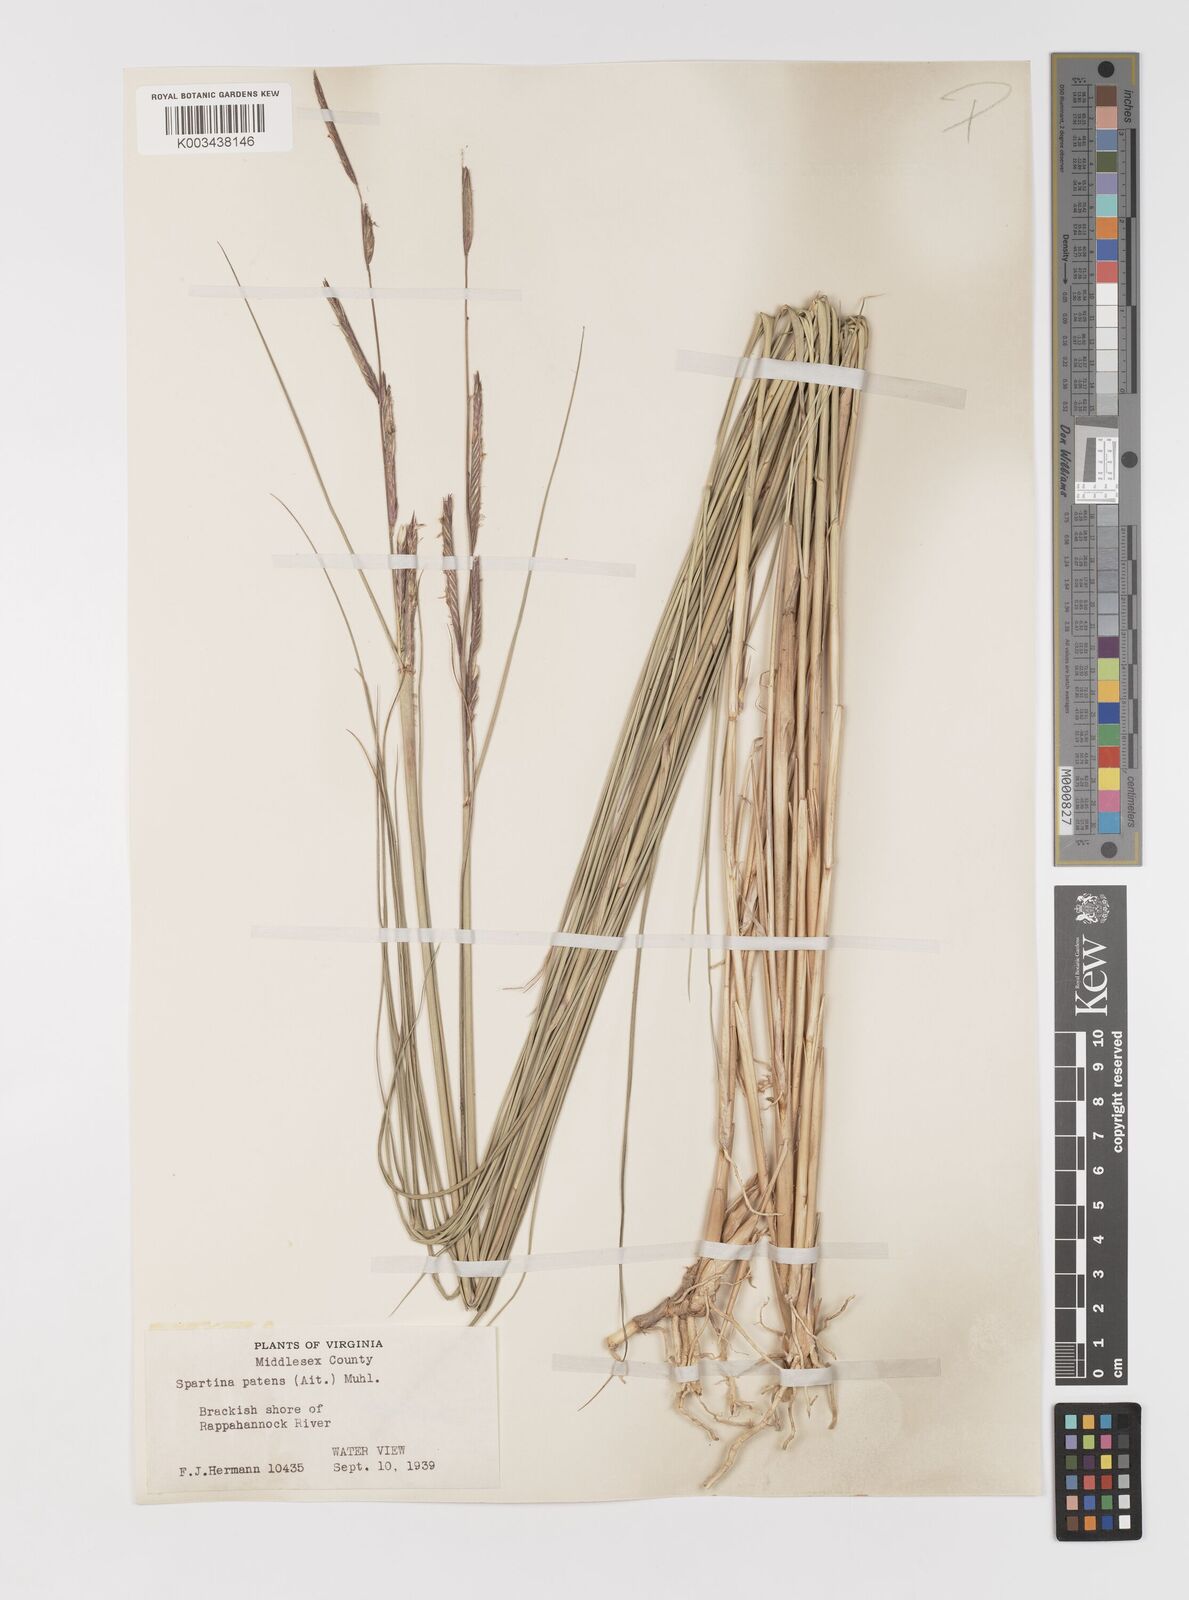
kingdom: Plantae
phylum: Tracheophyta
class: Liliopsida
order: Poales
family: Poaceae
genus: Sporobolus
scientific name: Sporobolus pumilus
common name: Highwater grass
